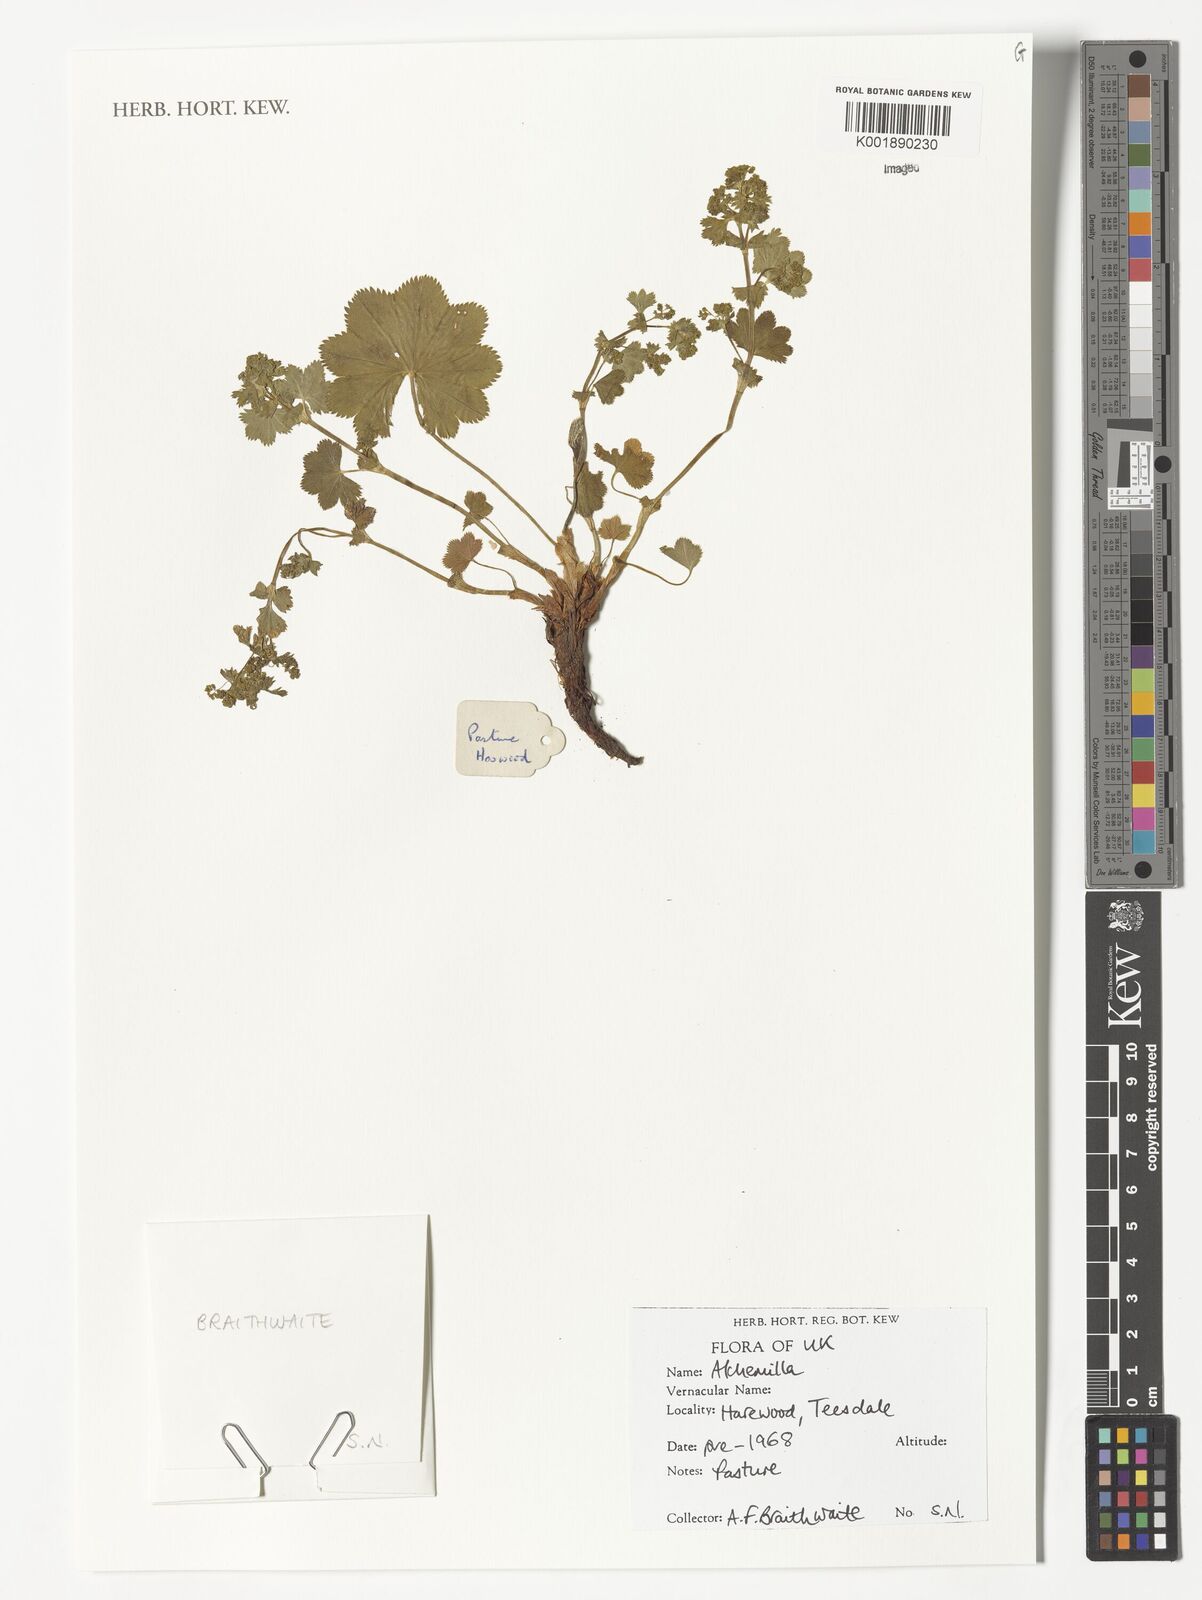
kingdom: Plantae
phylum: Tracheophyta
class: Magnoliopsida
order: Rosales
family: Rosaceae
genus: Alchemilla
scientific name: Alchemilla
